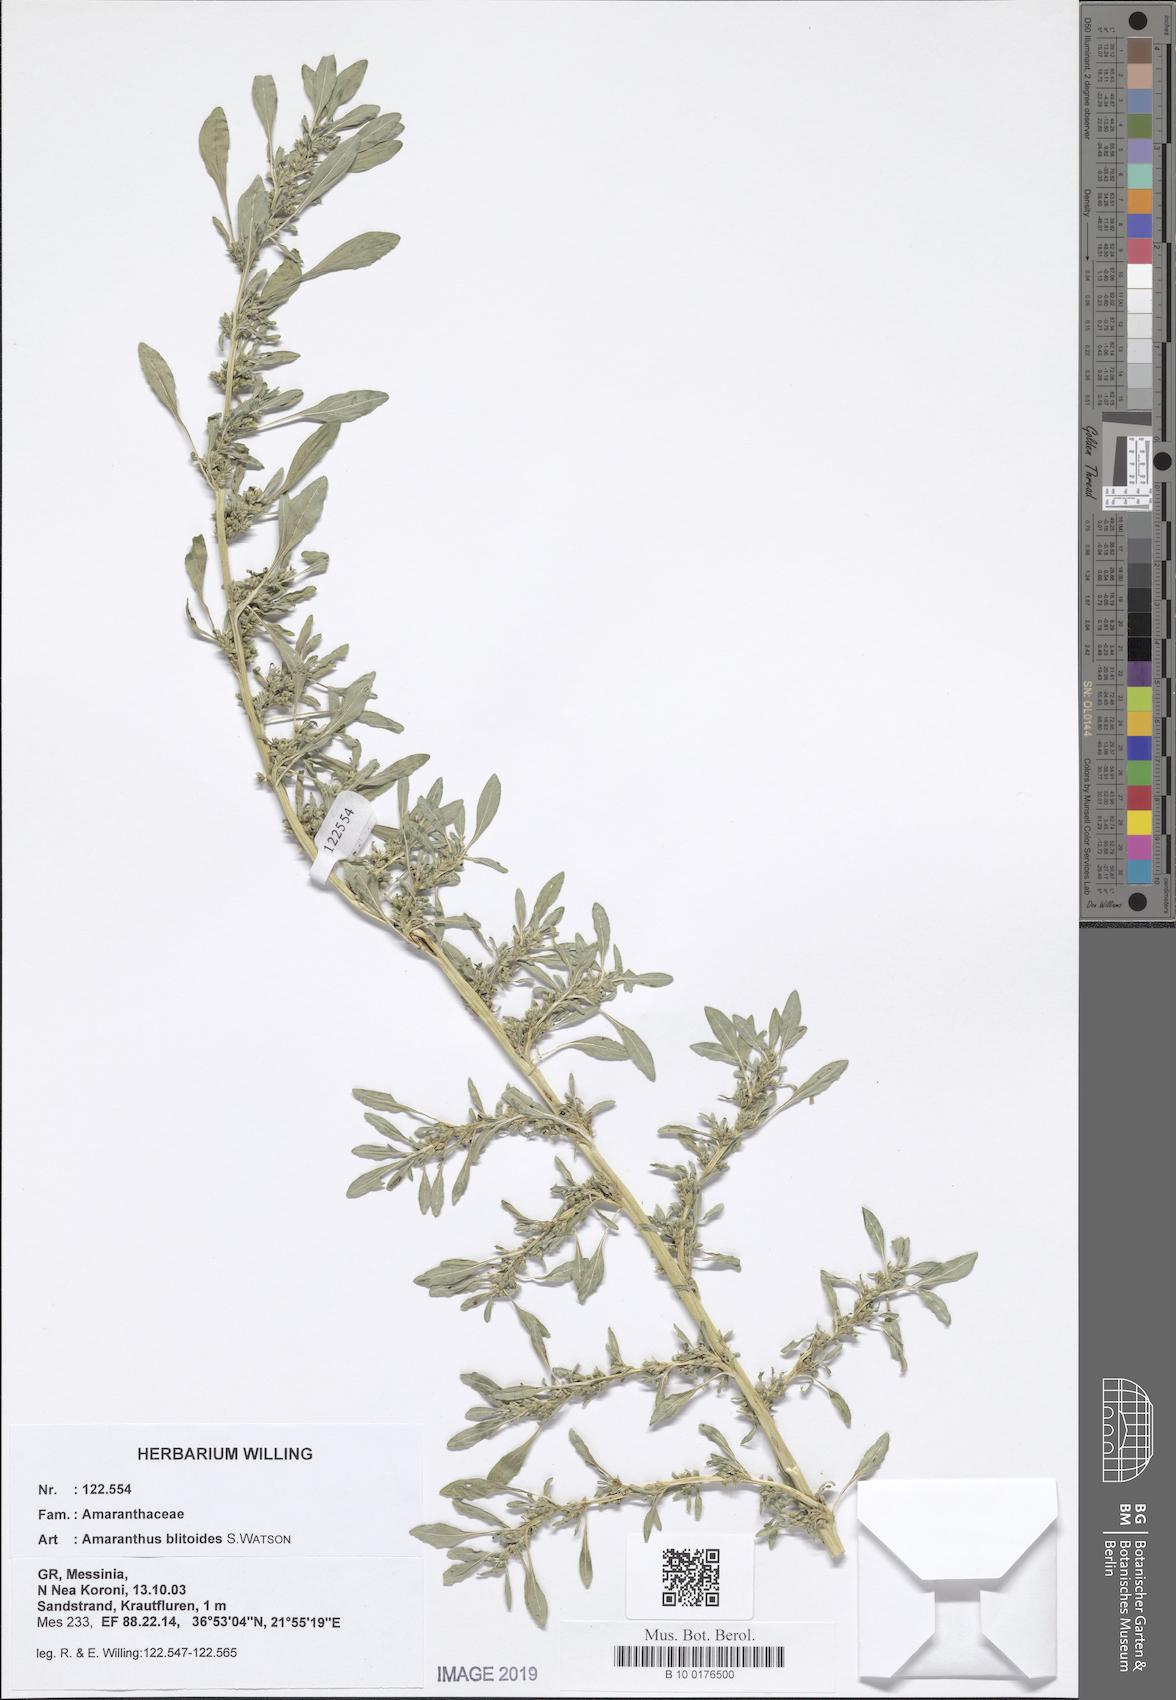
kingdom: Plantae
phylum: Tracheophyta
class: Magnoliopsida
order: Caryophyllales
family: Amaranthaceae
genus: Amaranthus
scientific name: Amaranthus blitoides
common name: Prostrate pigweed
